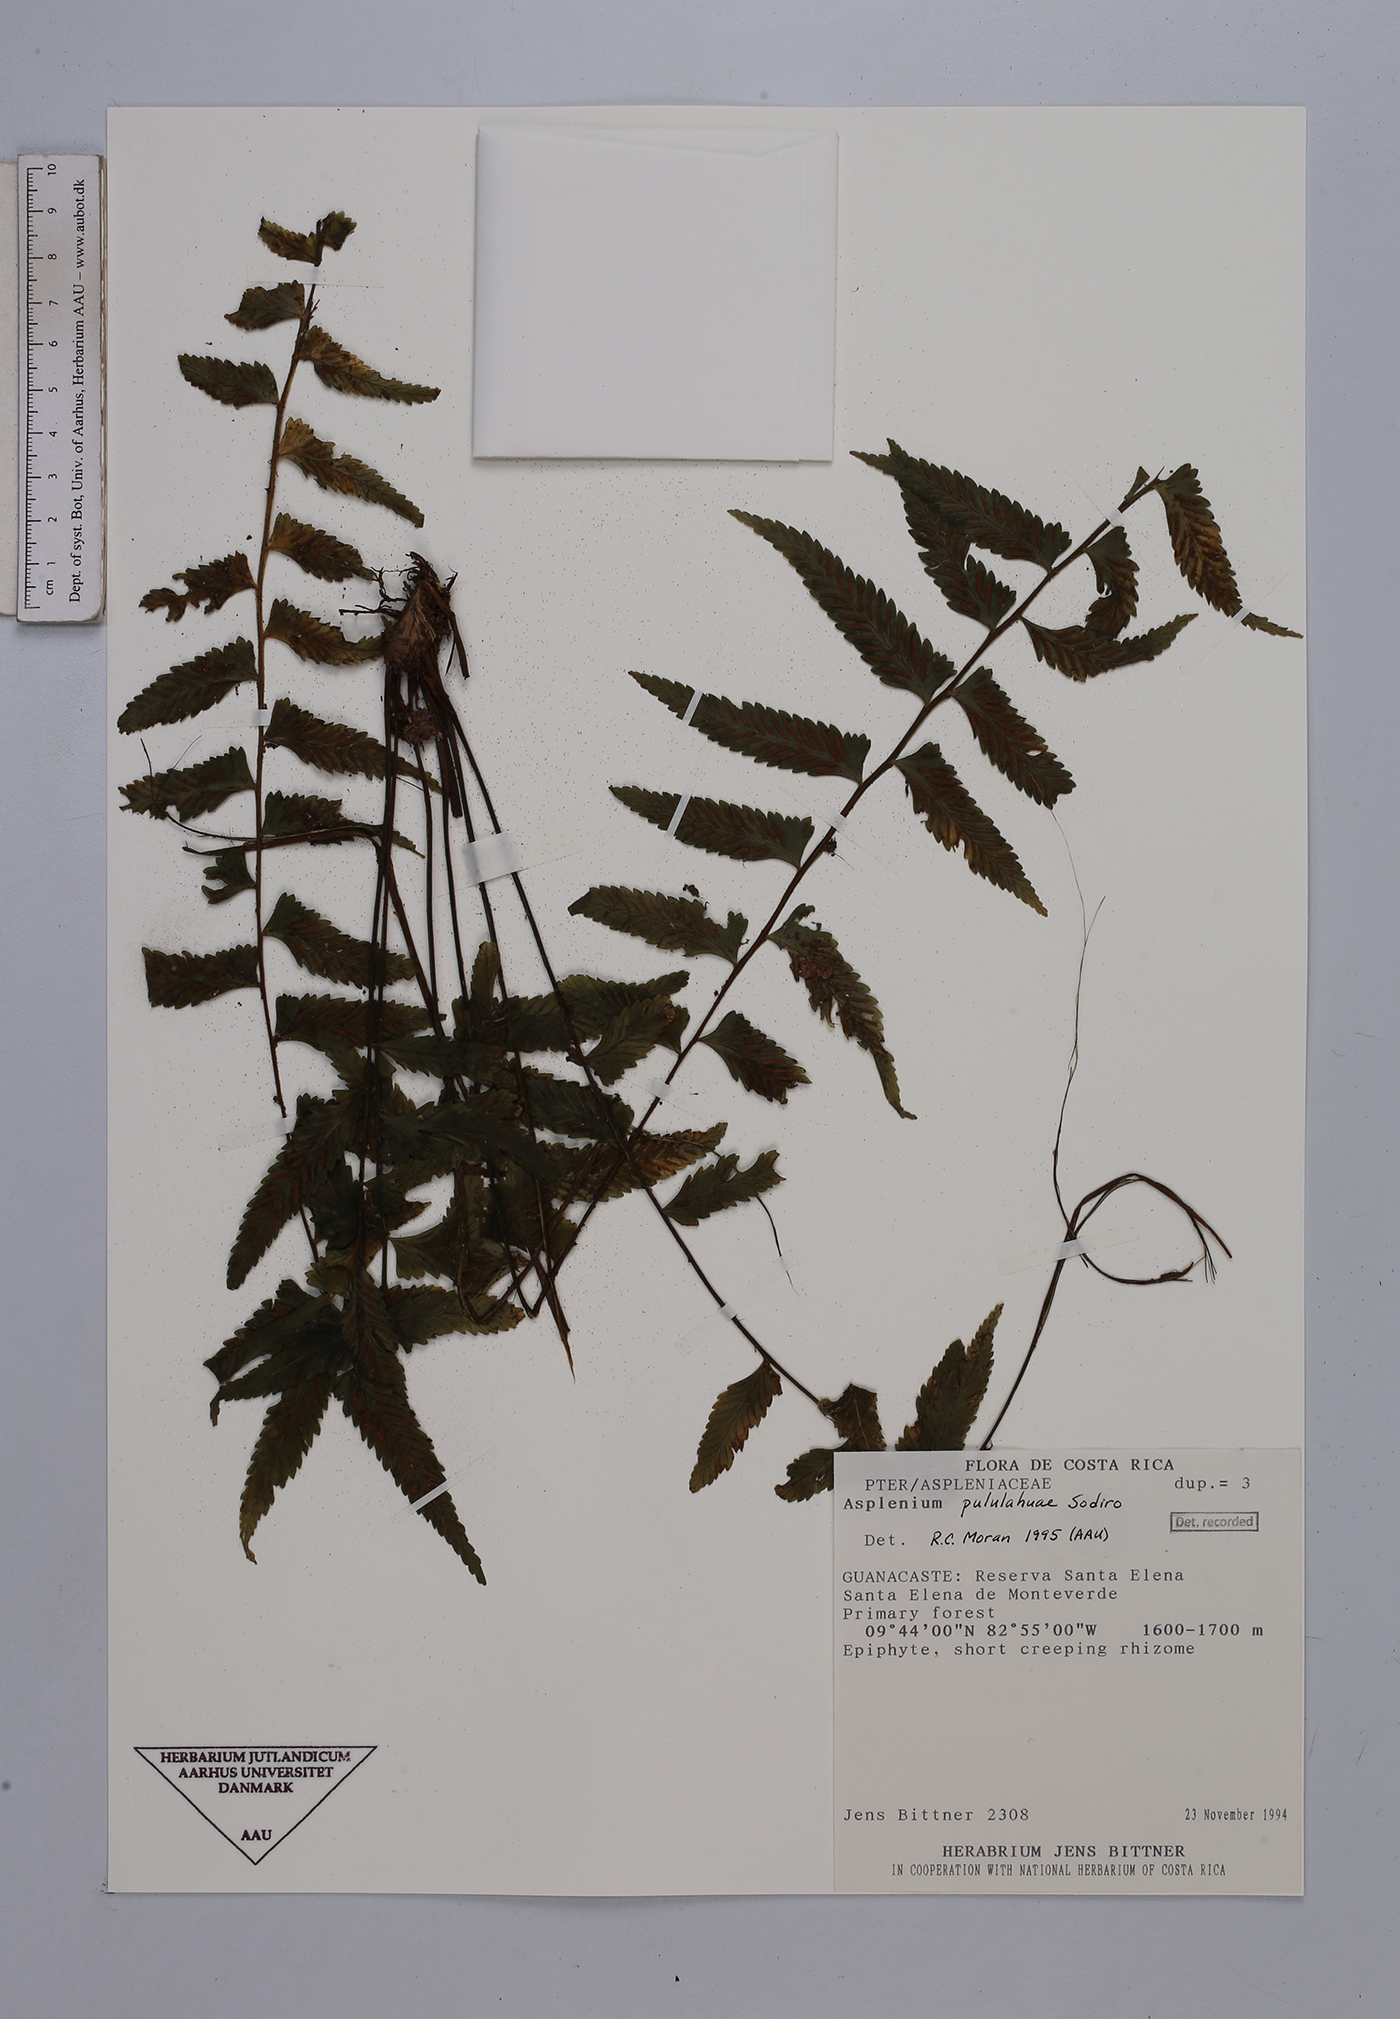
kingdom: Plantae
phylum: Tracheophyta
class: Polypodiopsida
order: Polypodiales
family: Aspleniaceae
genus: Asplenium
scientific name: Asplenium pululahuae
